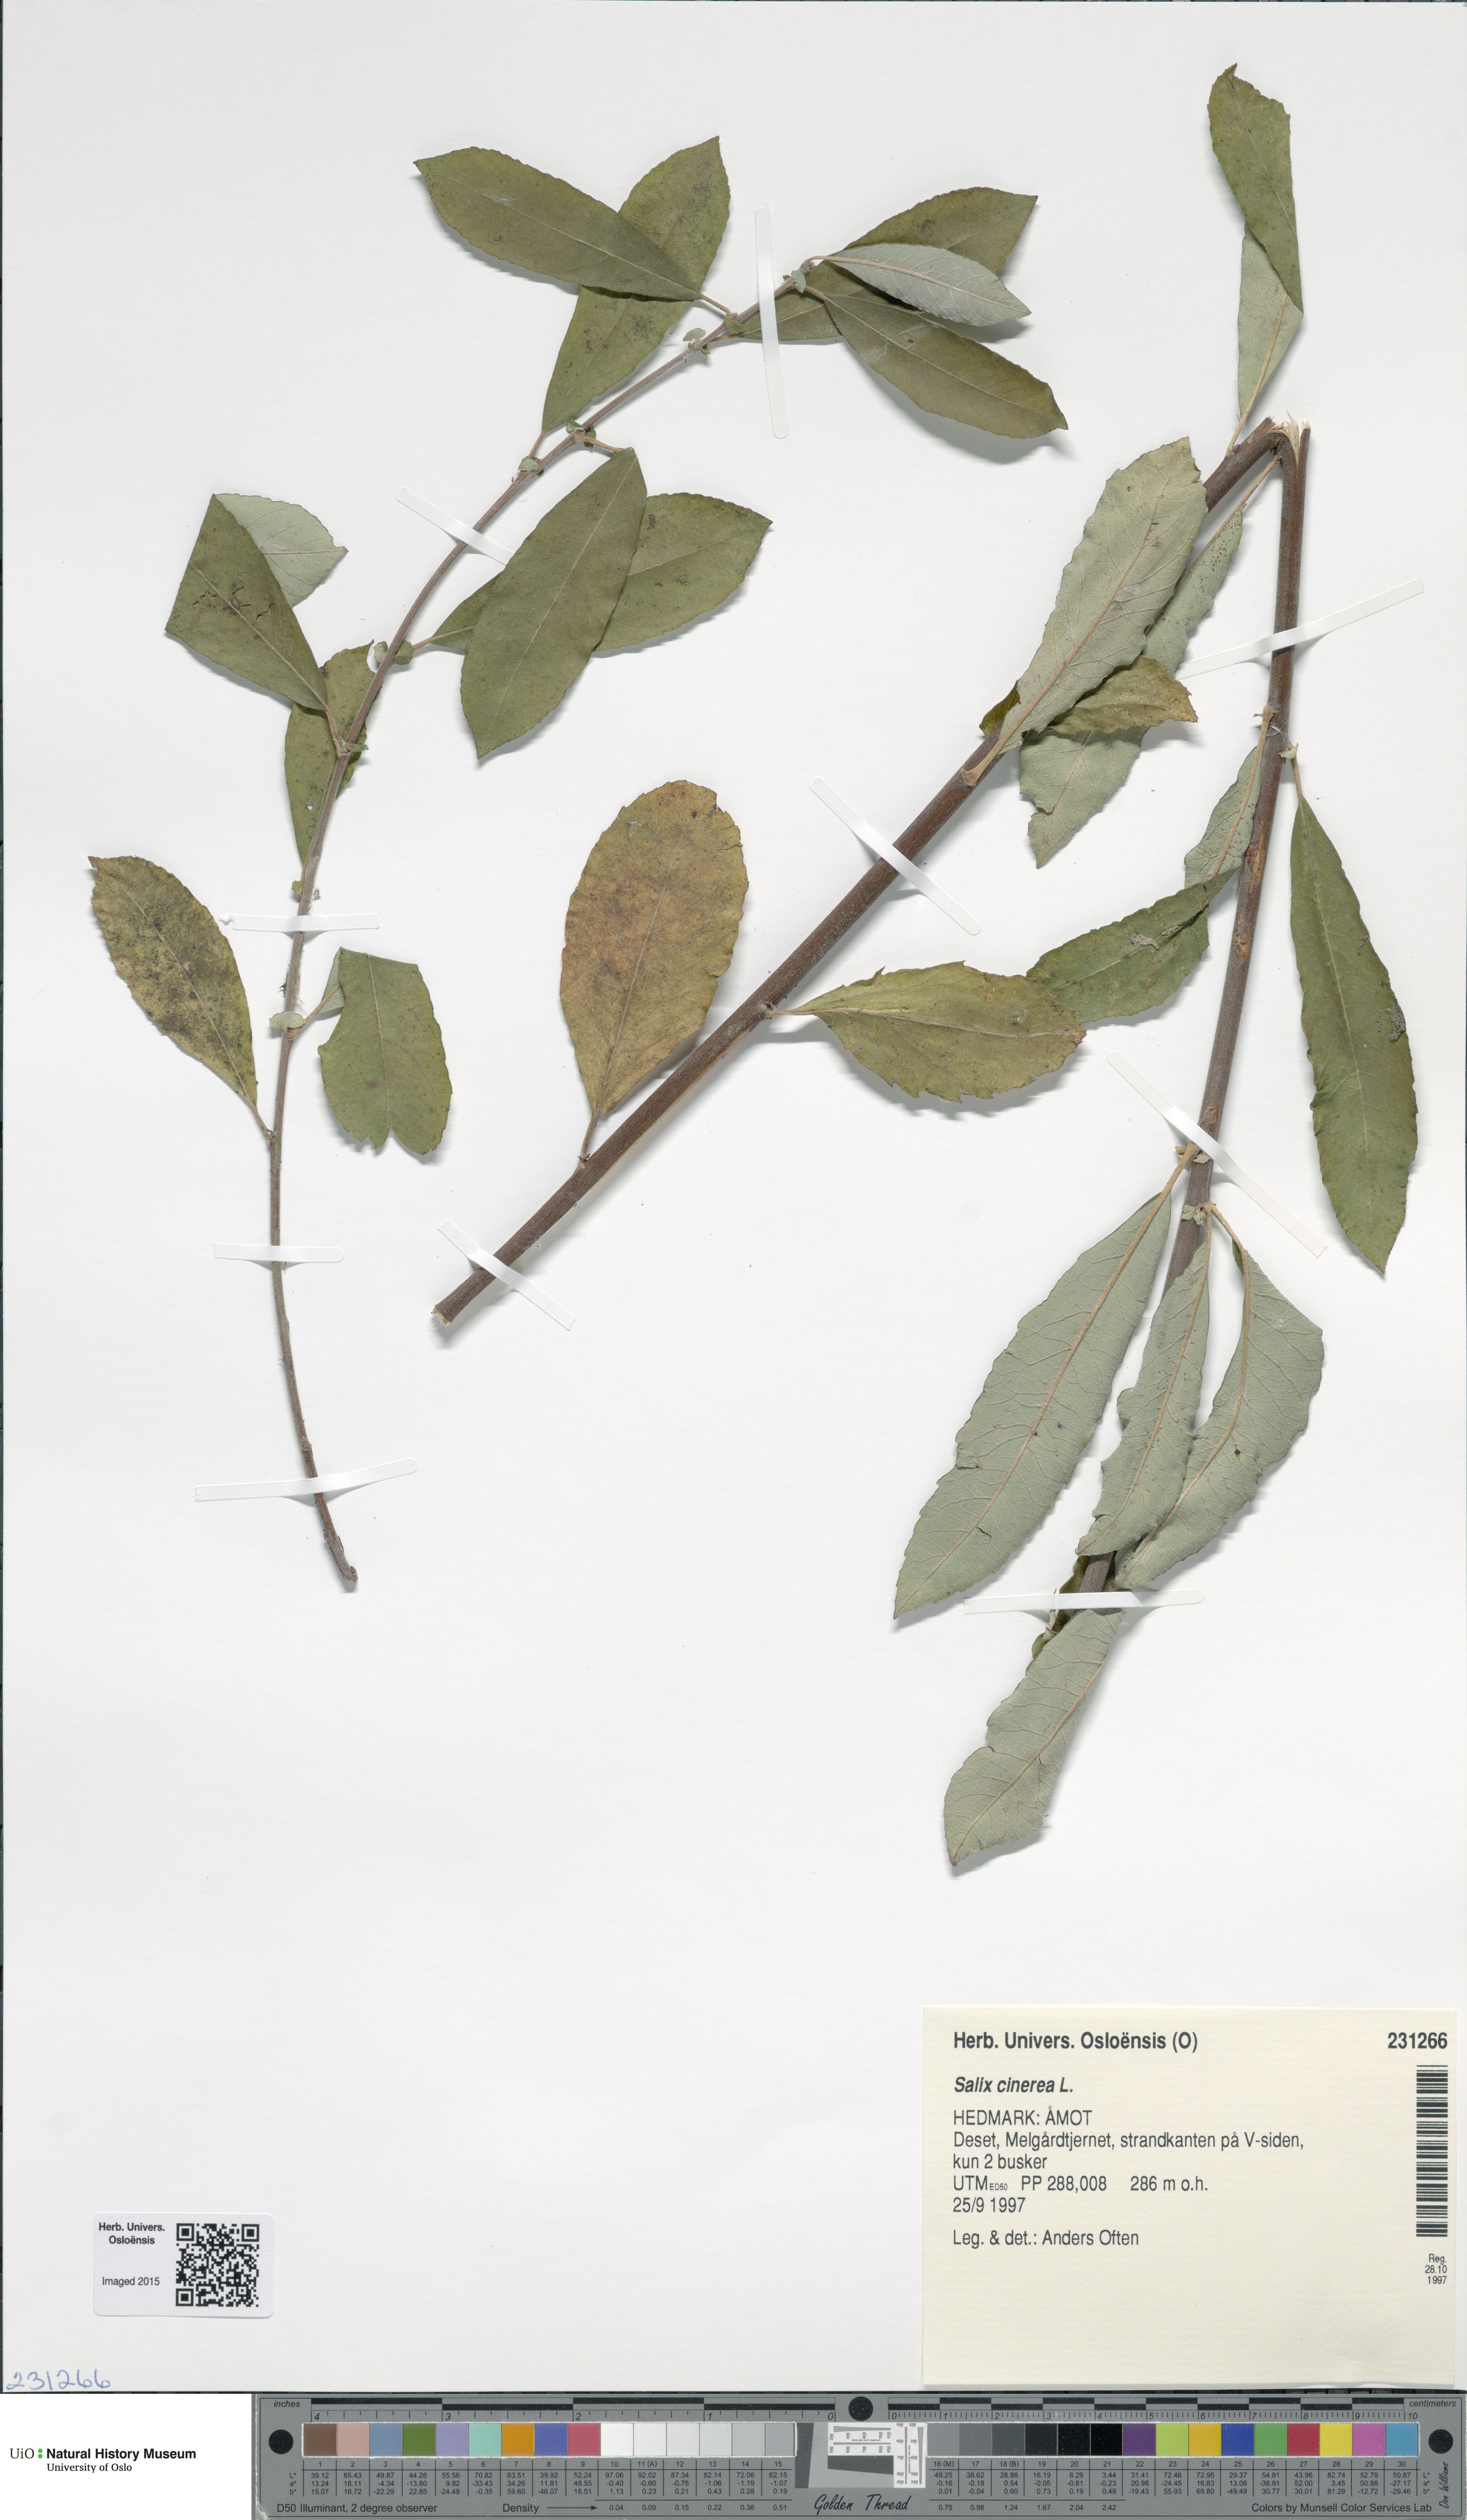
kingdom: Plantae
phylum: Tracheophyta
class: Magnoliopsida
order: Malpighiales
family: Salicaceae
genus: Salix
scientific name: Salix cinerea
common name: Common sallow
